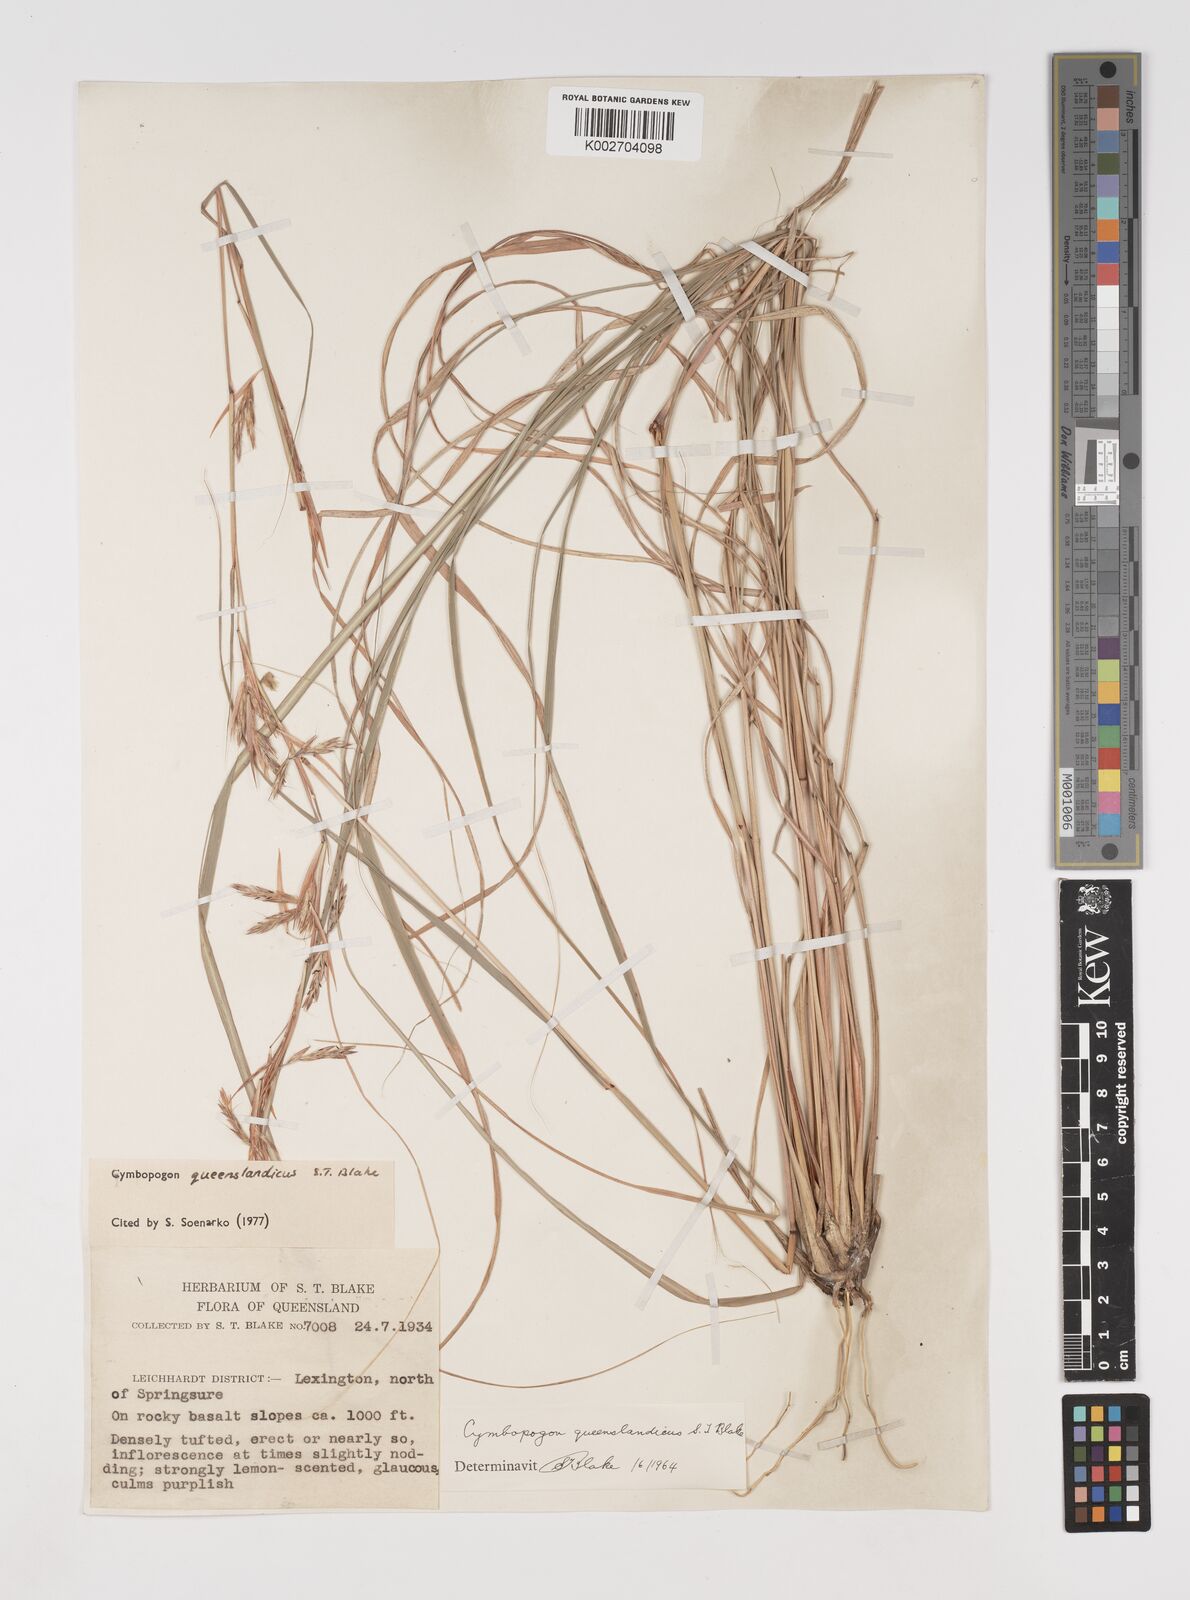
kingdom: Plantae
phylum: Tracheophyta
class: Liliopsida
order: Poales
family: Poaceae
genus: Cymbopogon
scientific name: Cymbopogon queenslandicus
